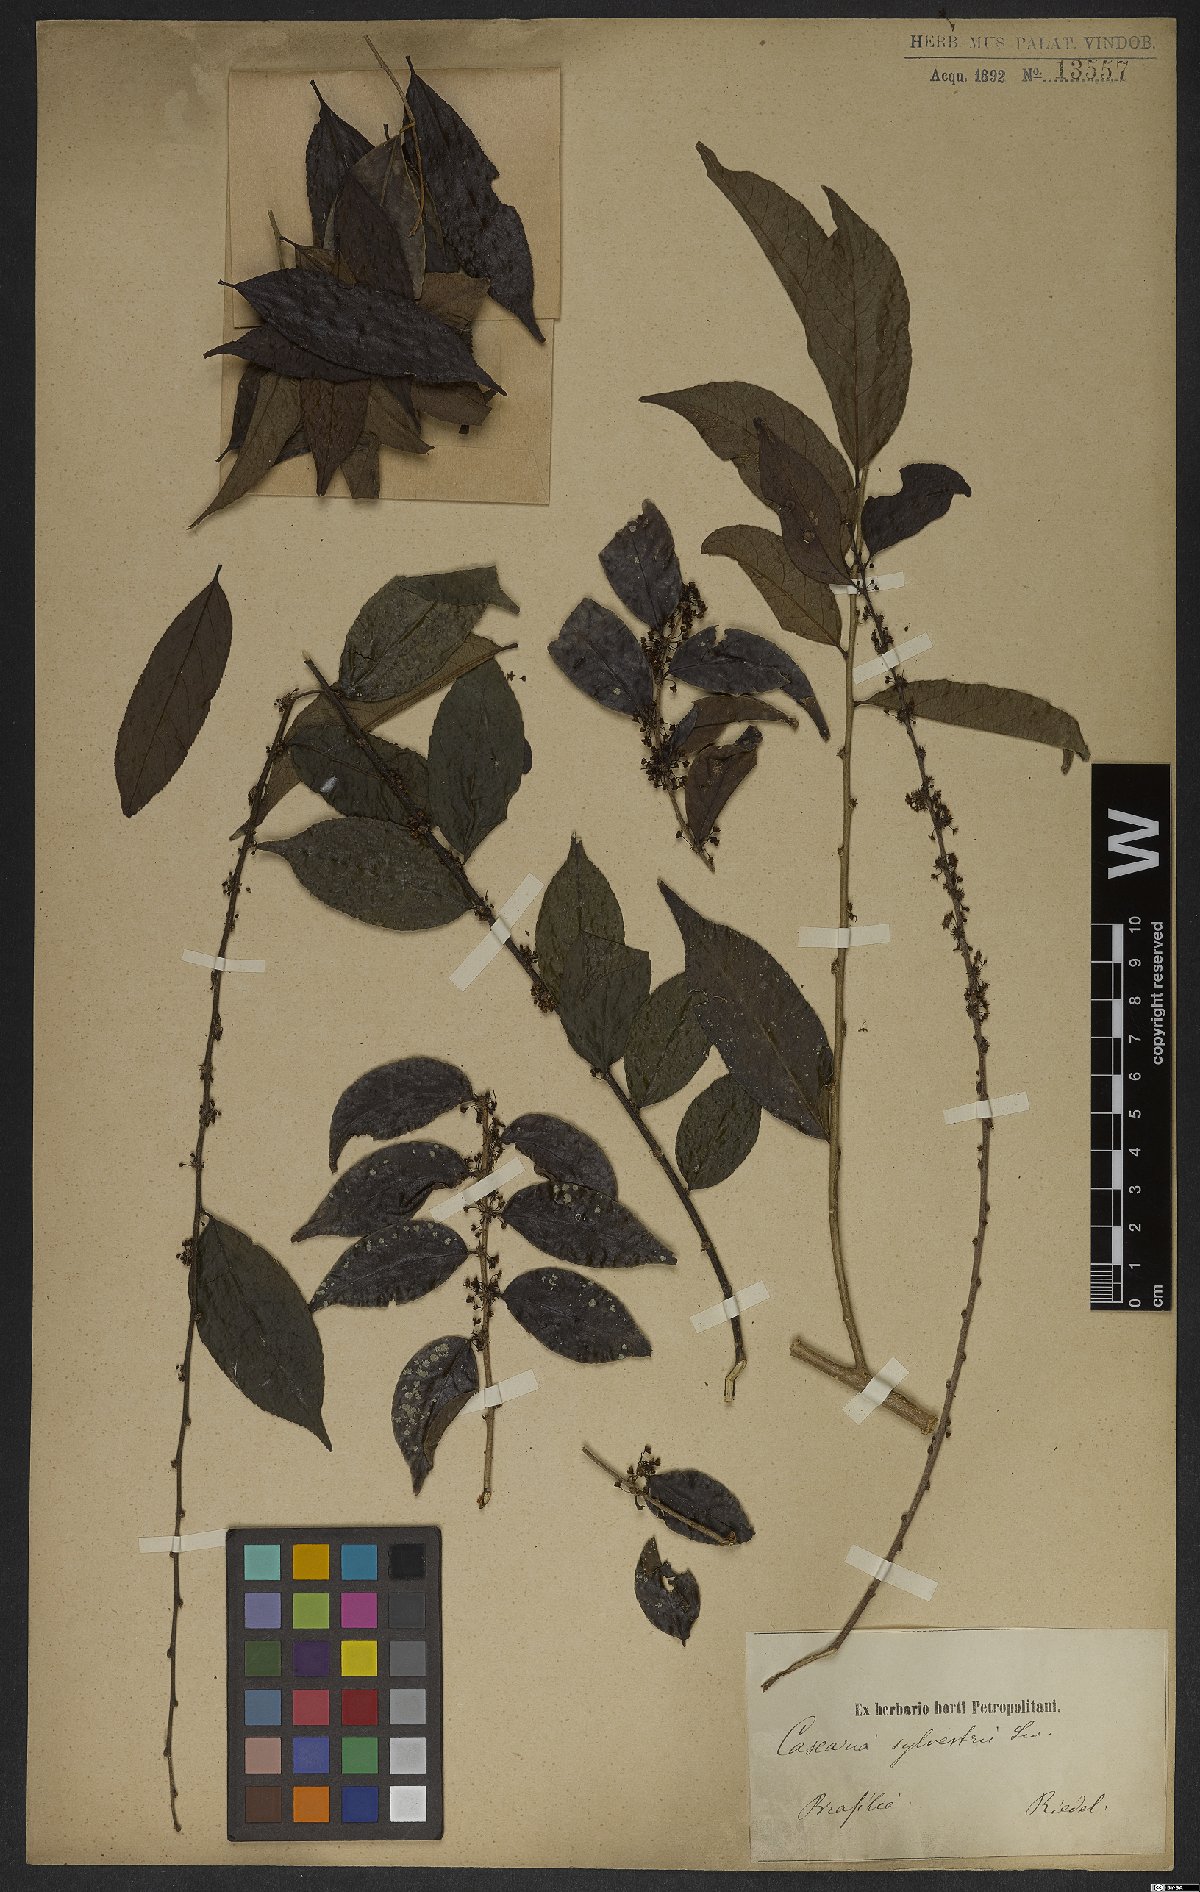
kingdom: Plantae
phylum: Tracheophyta
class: Magnoliopsida
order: Malpighiales
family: Salicaceae
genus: Casearia
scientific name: Casearia sylvestris
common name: Wild sage
